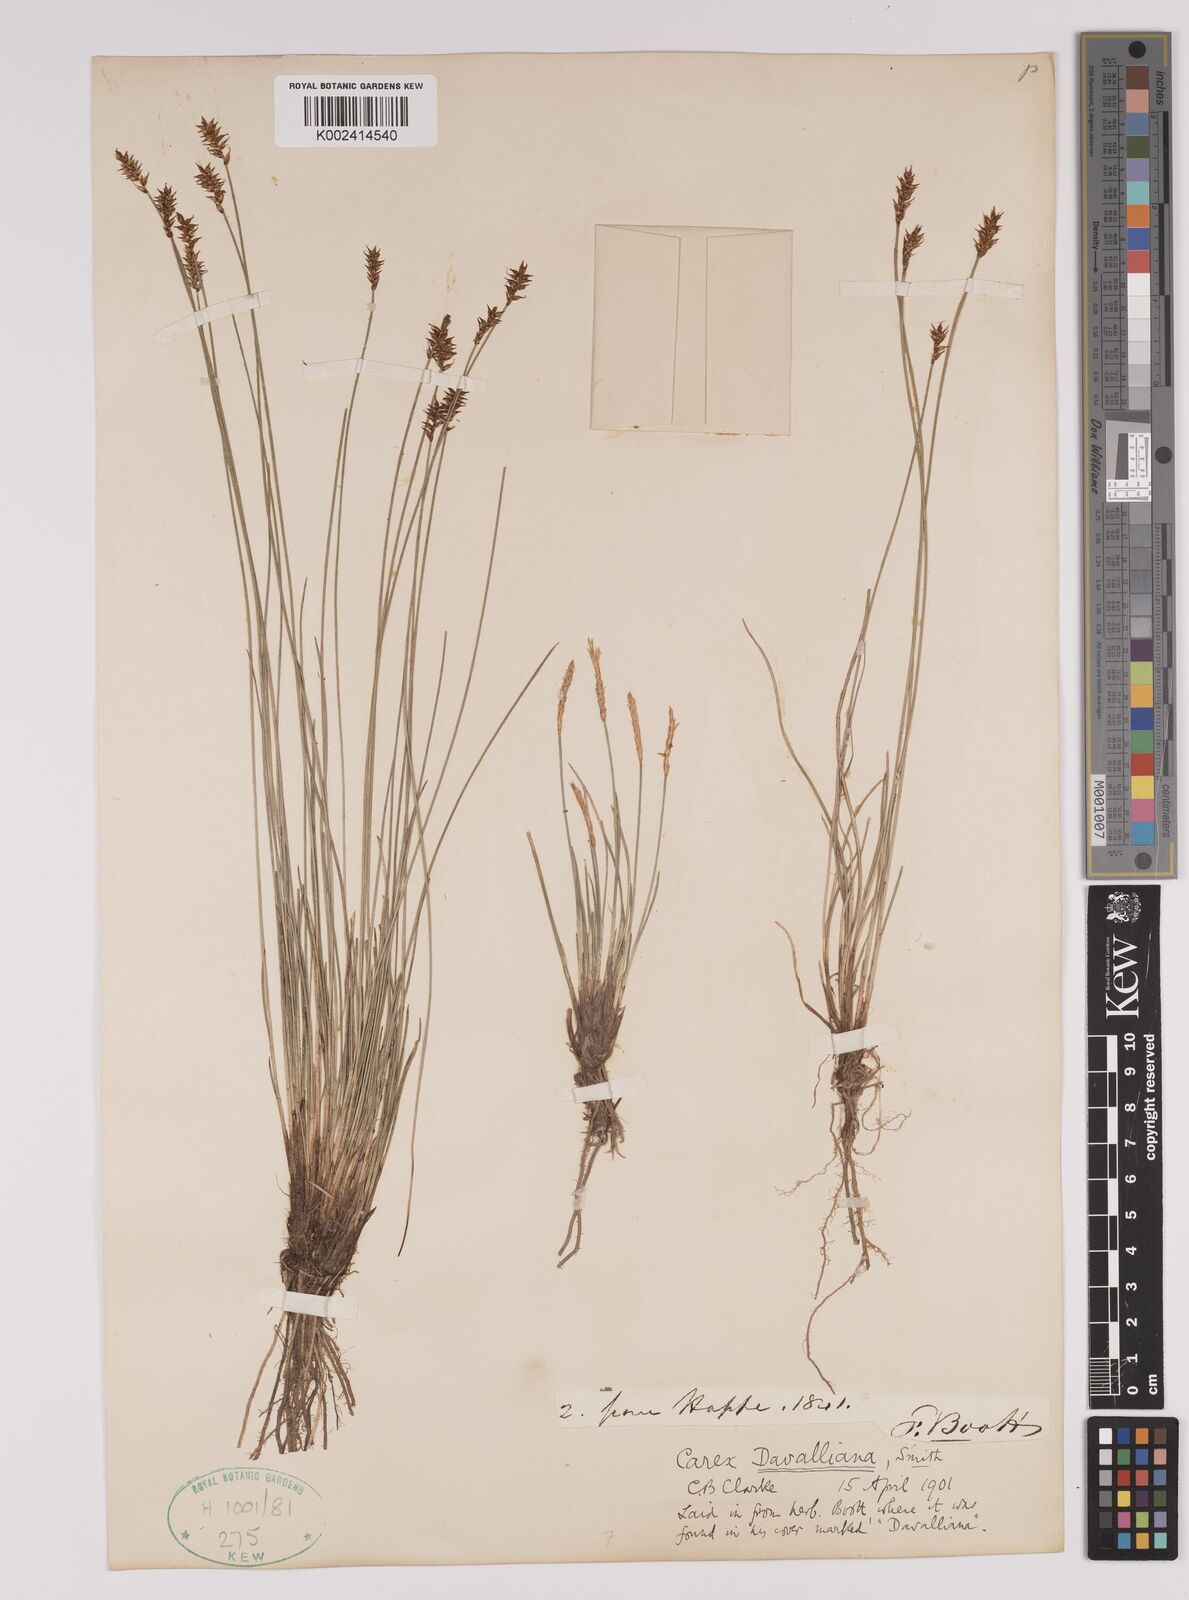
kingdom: Plantae
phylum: Tracheophyta
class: Liliopsida
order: Poales
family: Cyperaceae
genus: Carex
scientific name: Carex davalliana
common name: Davall's sedge
